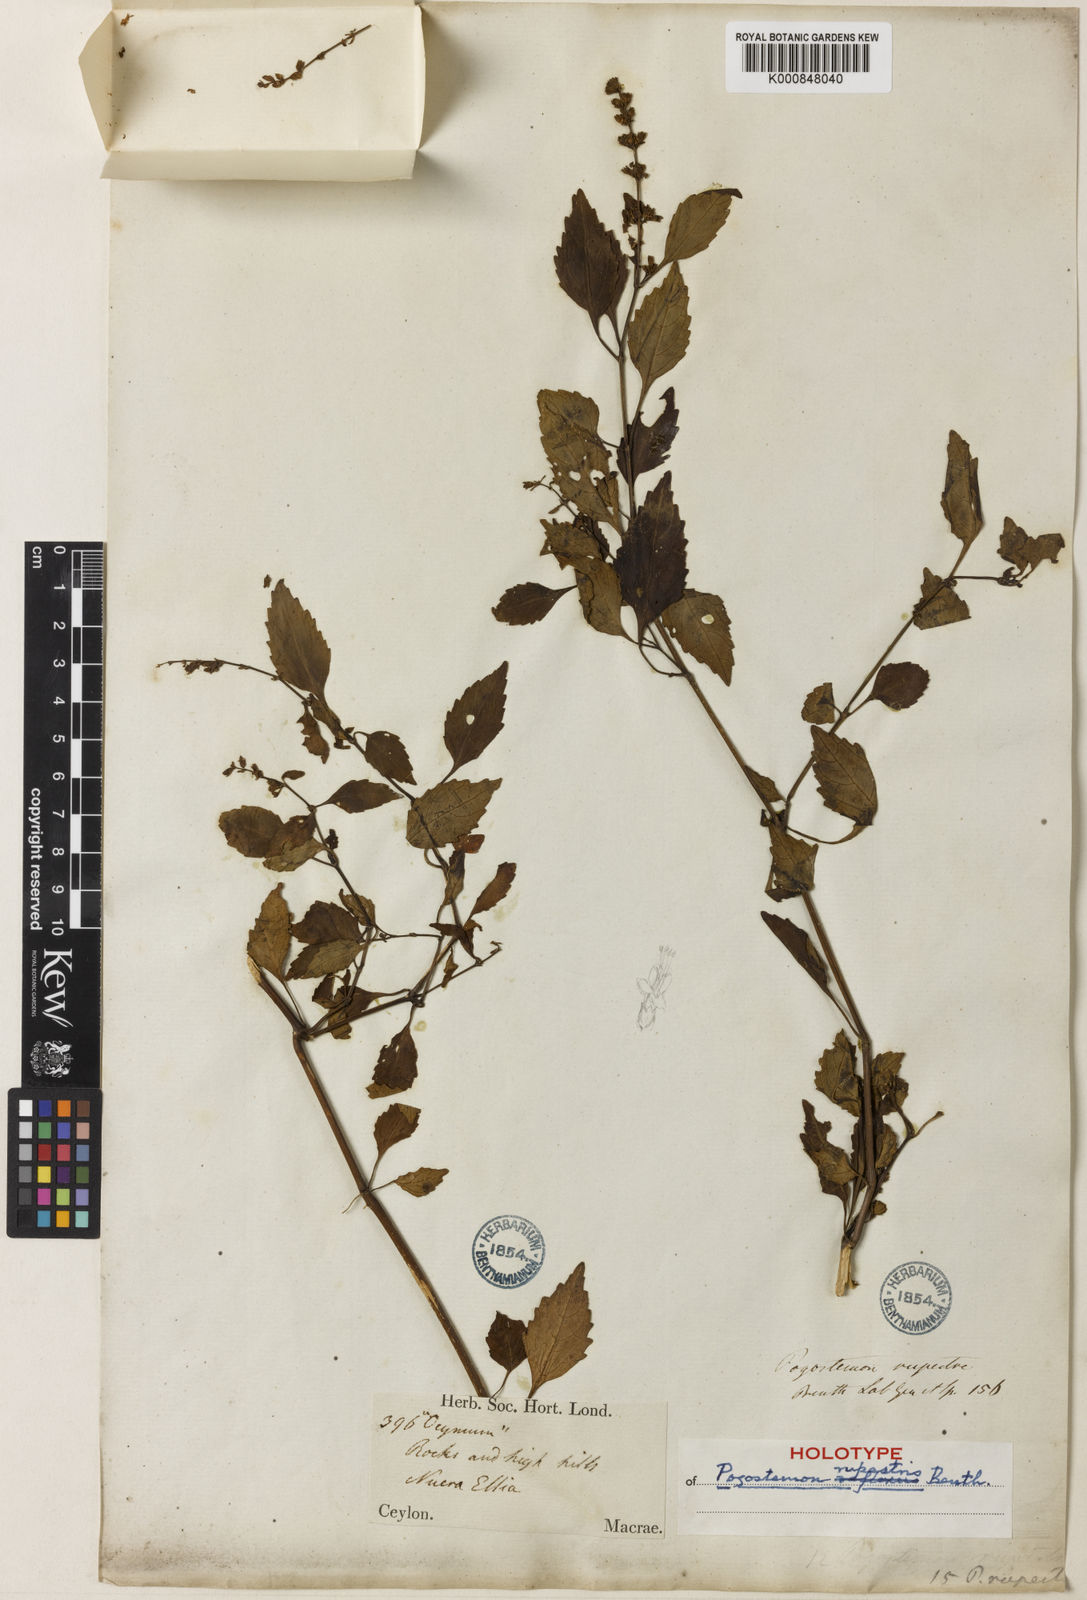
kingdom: Plantae
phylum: Tracheophyta
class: Magnoliopsida
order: Lamiales
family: Lamiaceae
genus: Pogostemon
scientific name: Pogostemon rupestris
